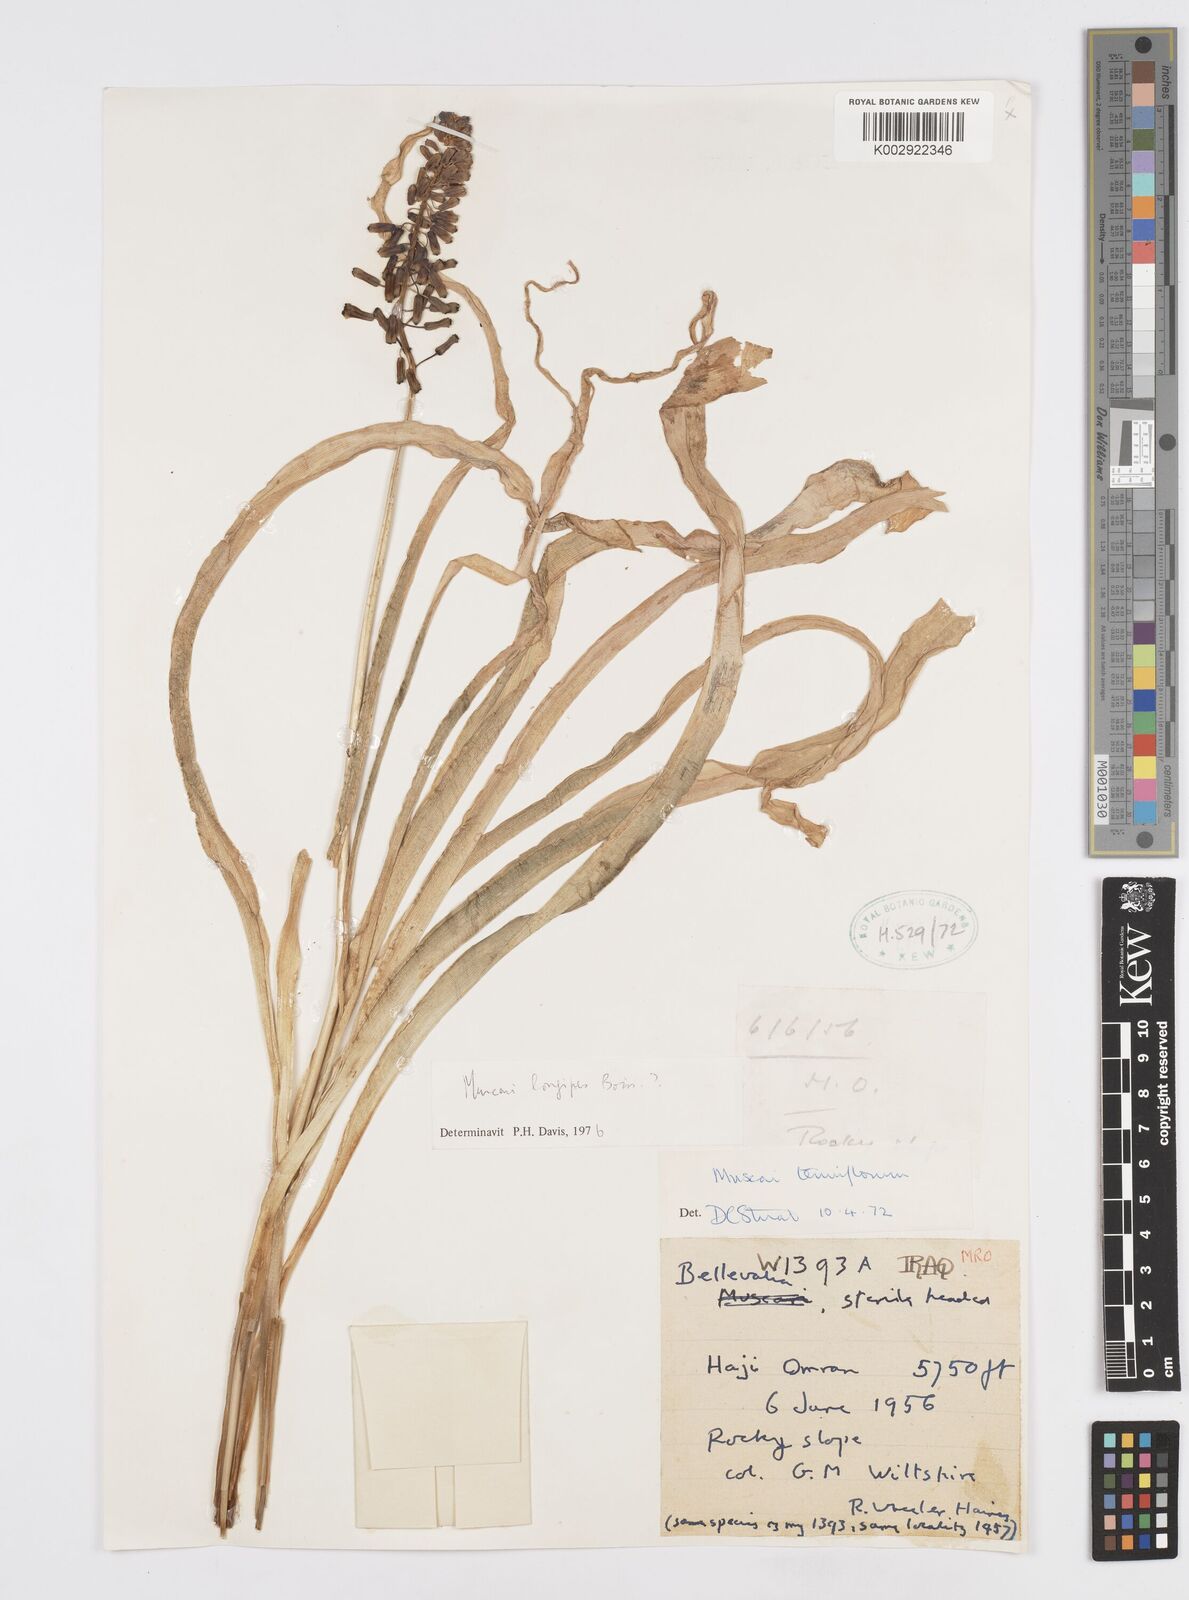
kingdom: Plantae
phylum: Tracheophyta
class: Liliopsida
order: Asparagales
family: Asparagaceae
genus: Muscari
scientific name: Muscari longipes
